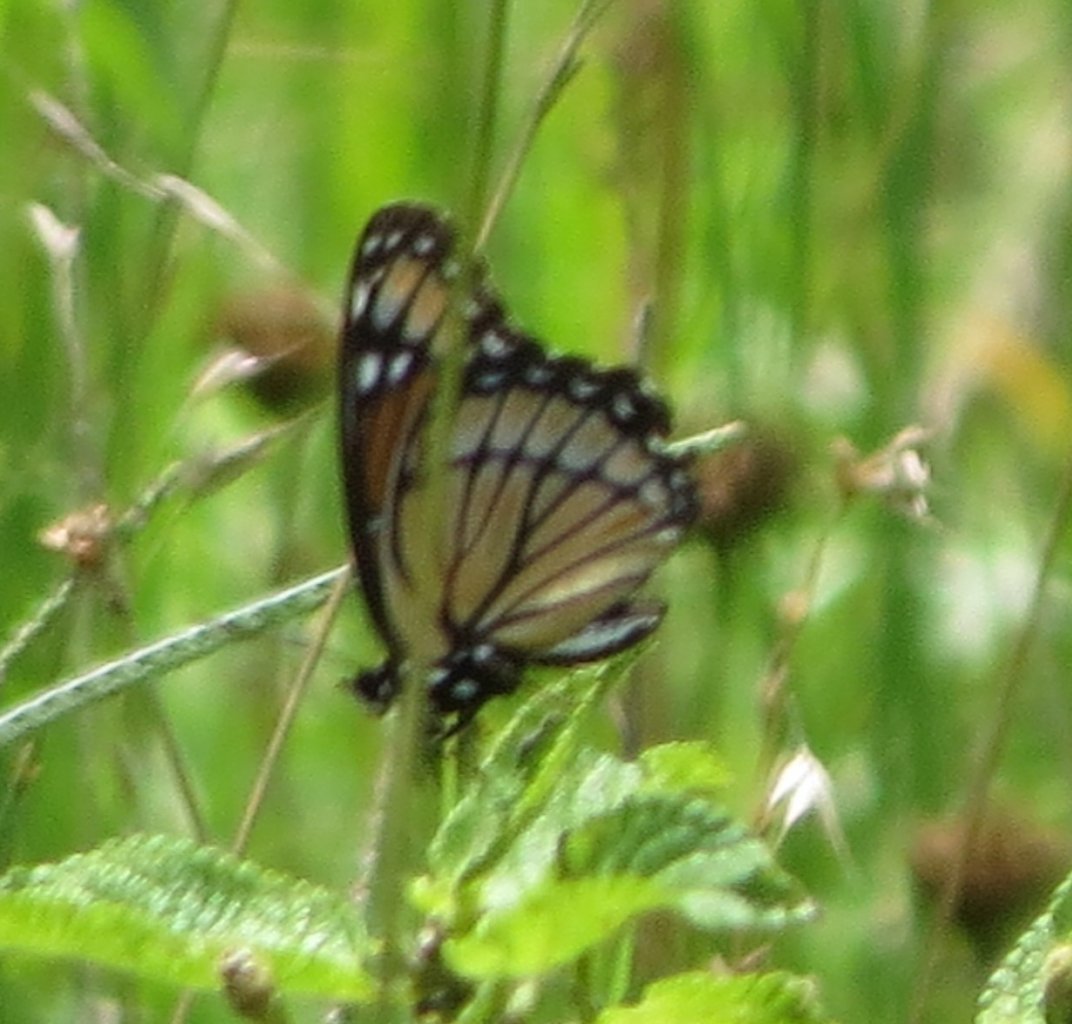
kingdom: Animalia
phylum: Arthropoda
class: Insecta
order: Lepidoptera
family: Nymphalidae
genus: Limenitis
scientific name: Limenitis archippus
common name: Viceroy
